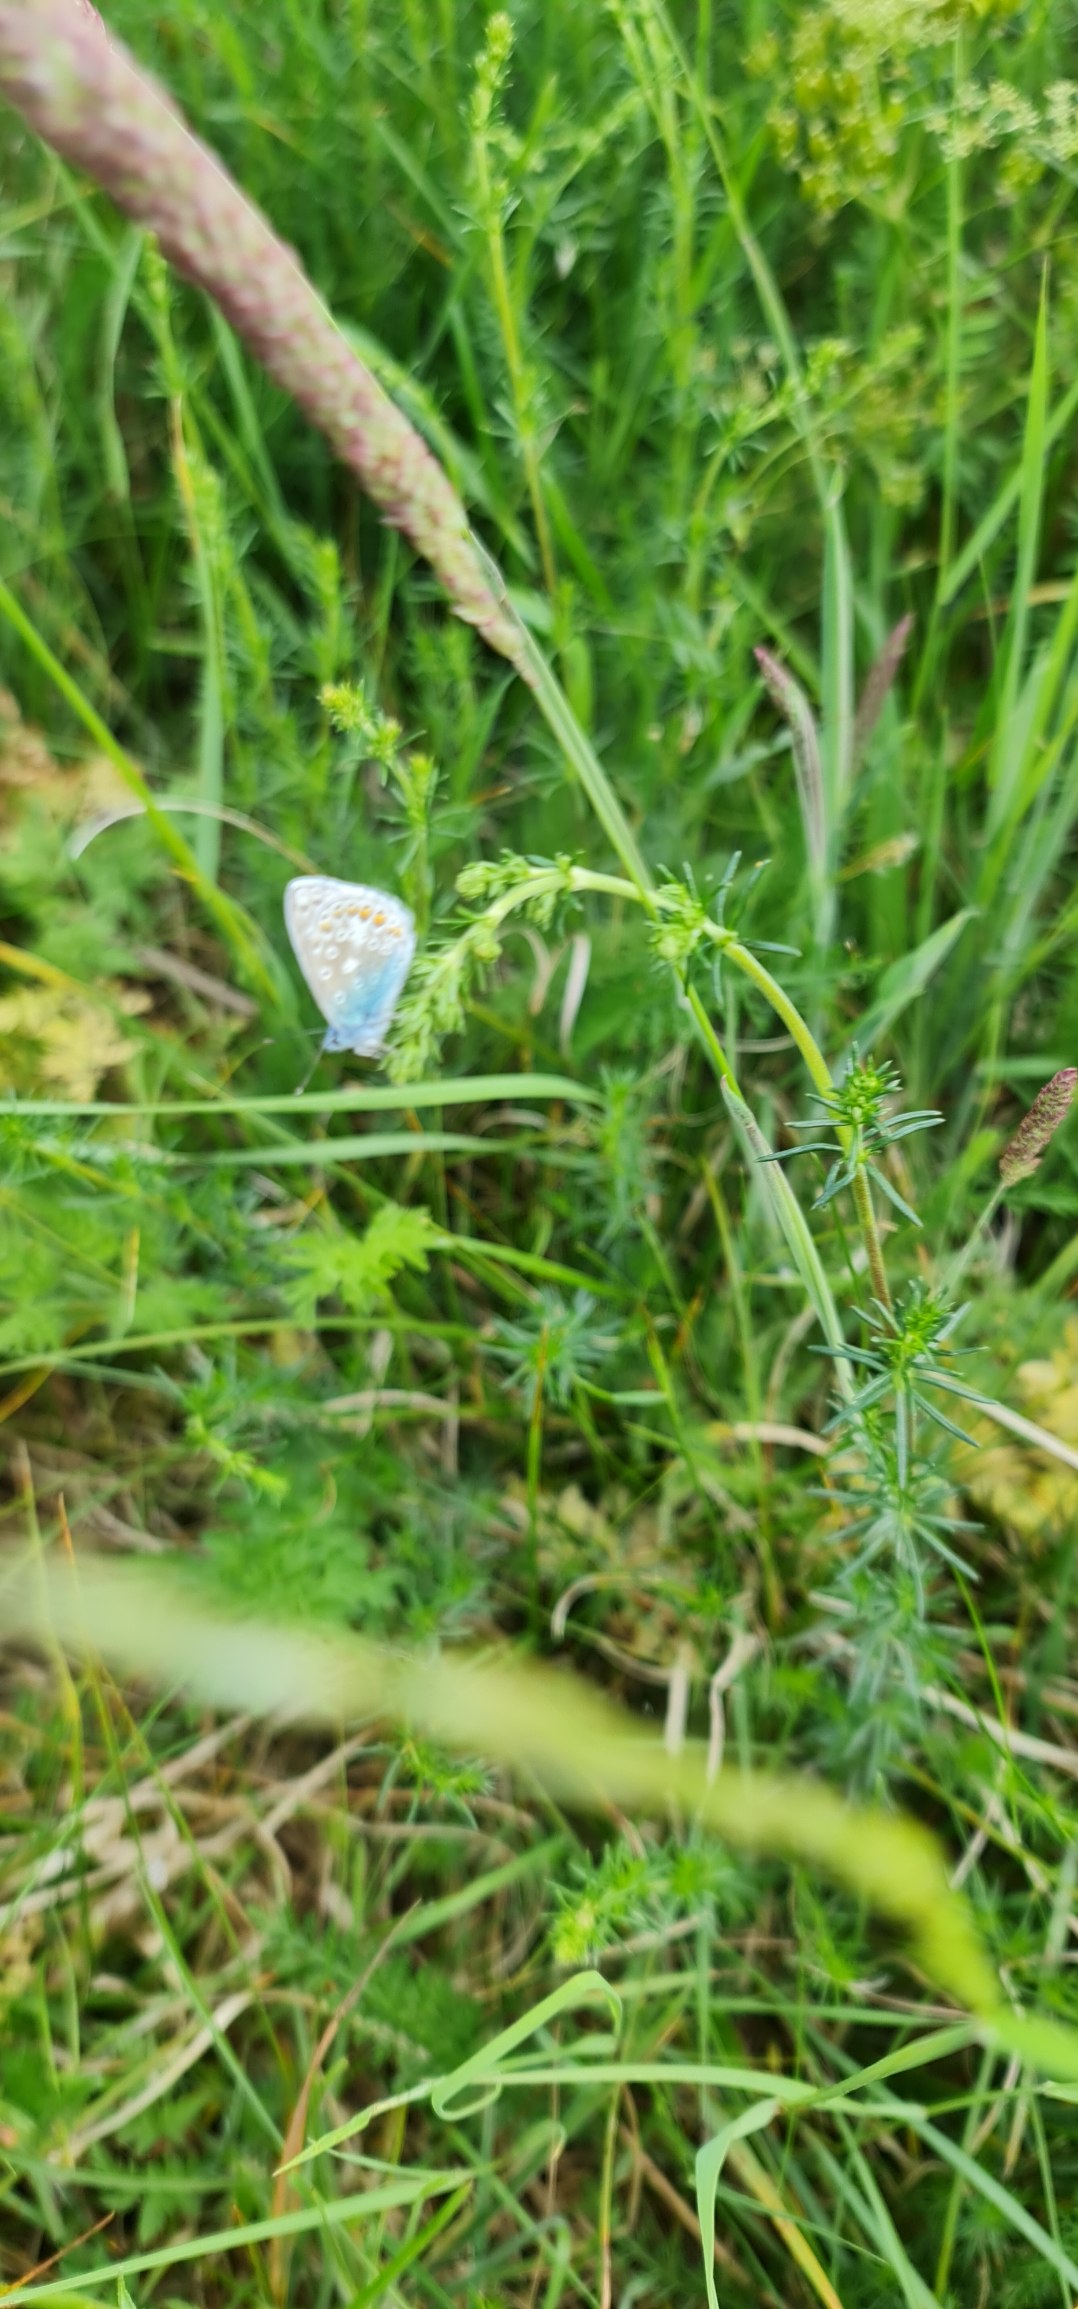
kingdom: Animalia
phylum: Arthropoda
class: Insecta
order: Lepidoptera
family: Lycaenidae
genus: Polyommatus
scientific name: Polyommatus icarus
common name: Almindelig blåfugl
